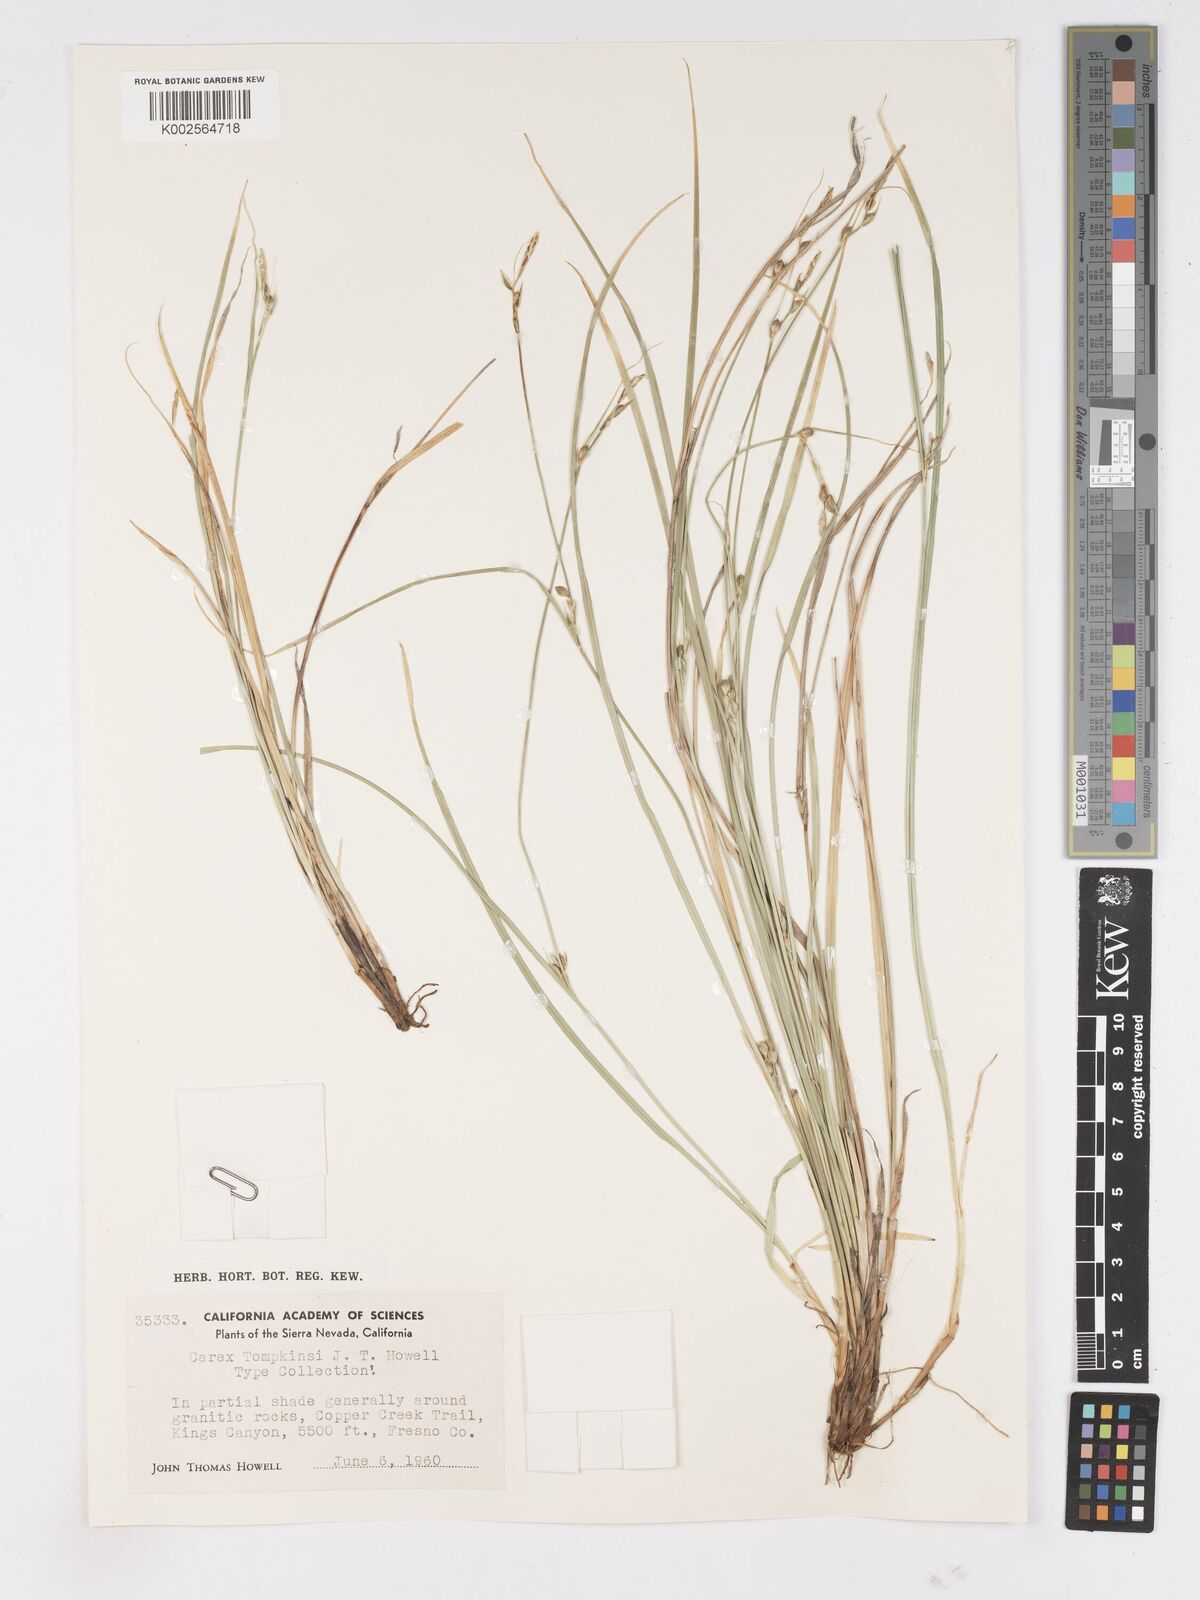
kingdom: Plantae
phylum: Tracheophyta
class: Liliopsida
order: Poales
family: Cyperaceae
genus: Carex
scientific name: Carex tompkinsii
